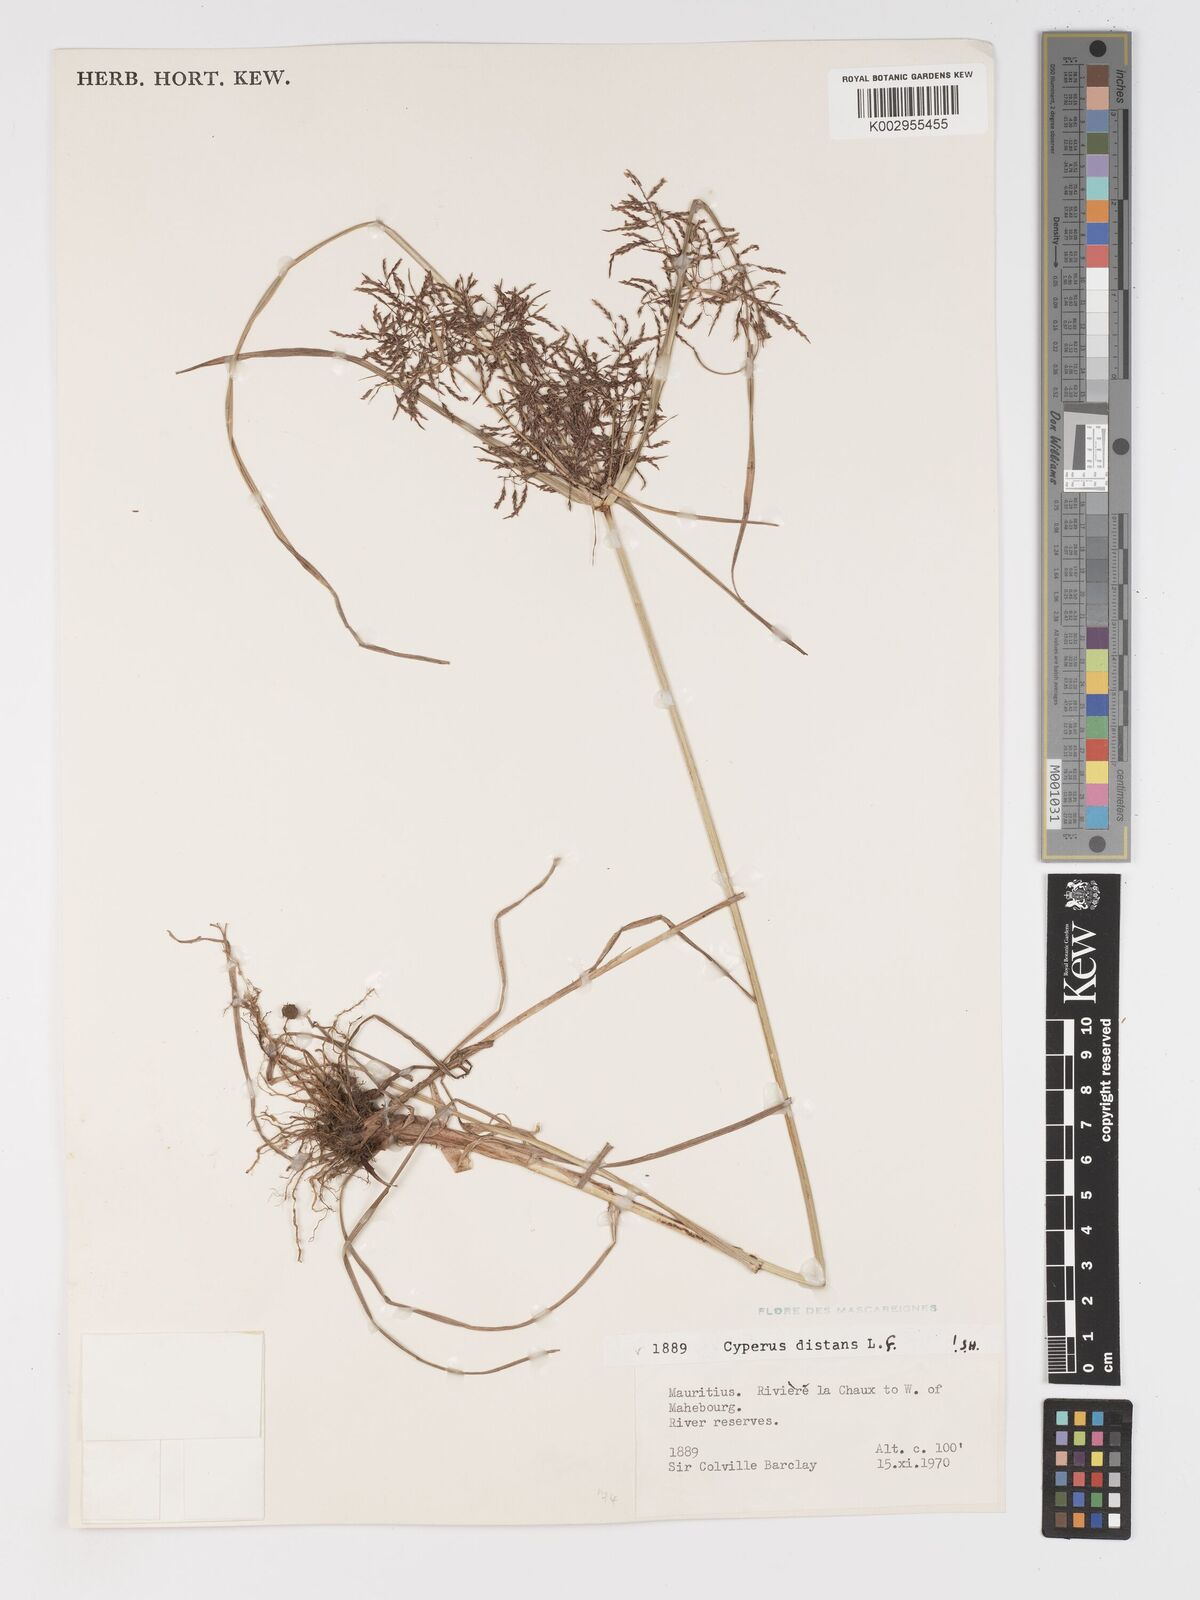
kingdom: Plantae
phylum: Tracheophyta
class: Liliopsida
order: Poales
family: Cyperaceae
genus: Cyperus
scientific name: Cyperus distans
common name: Slender cyperus
